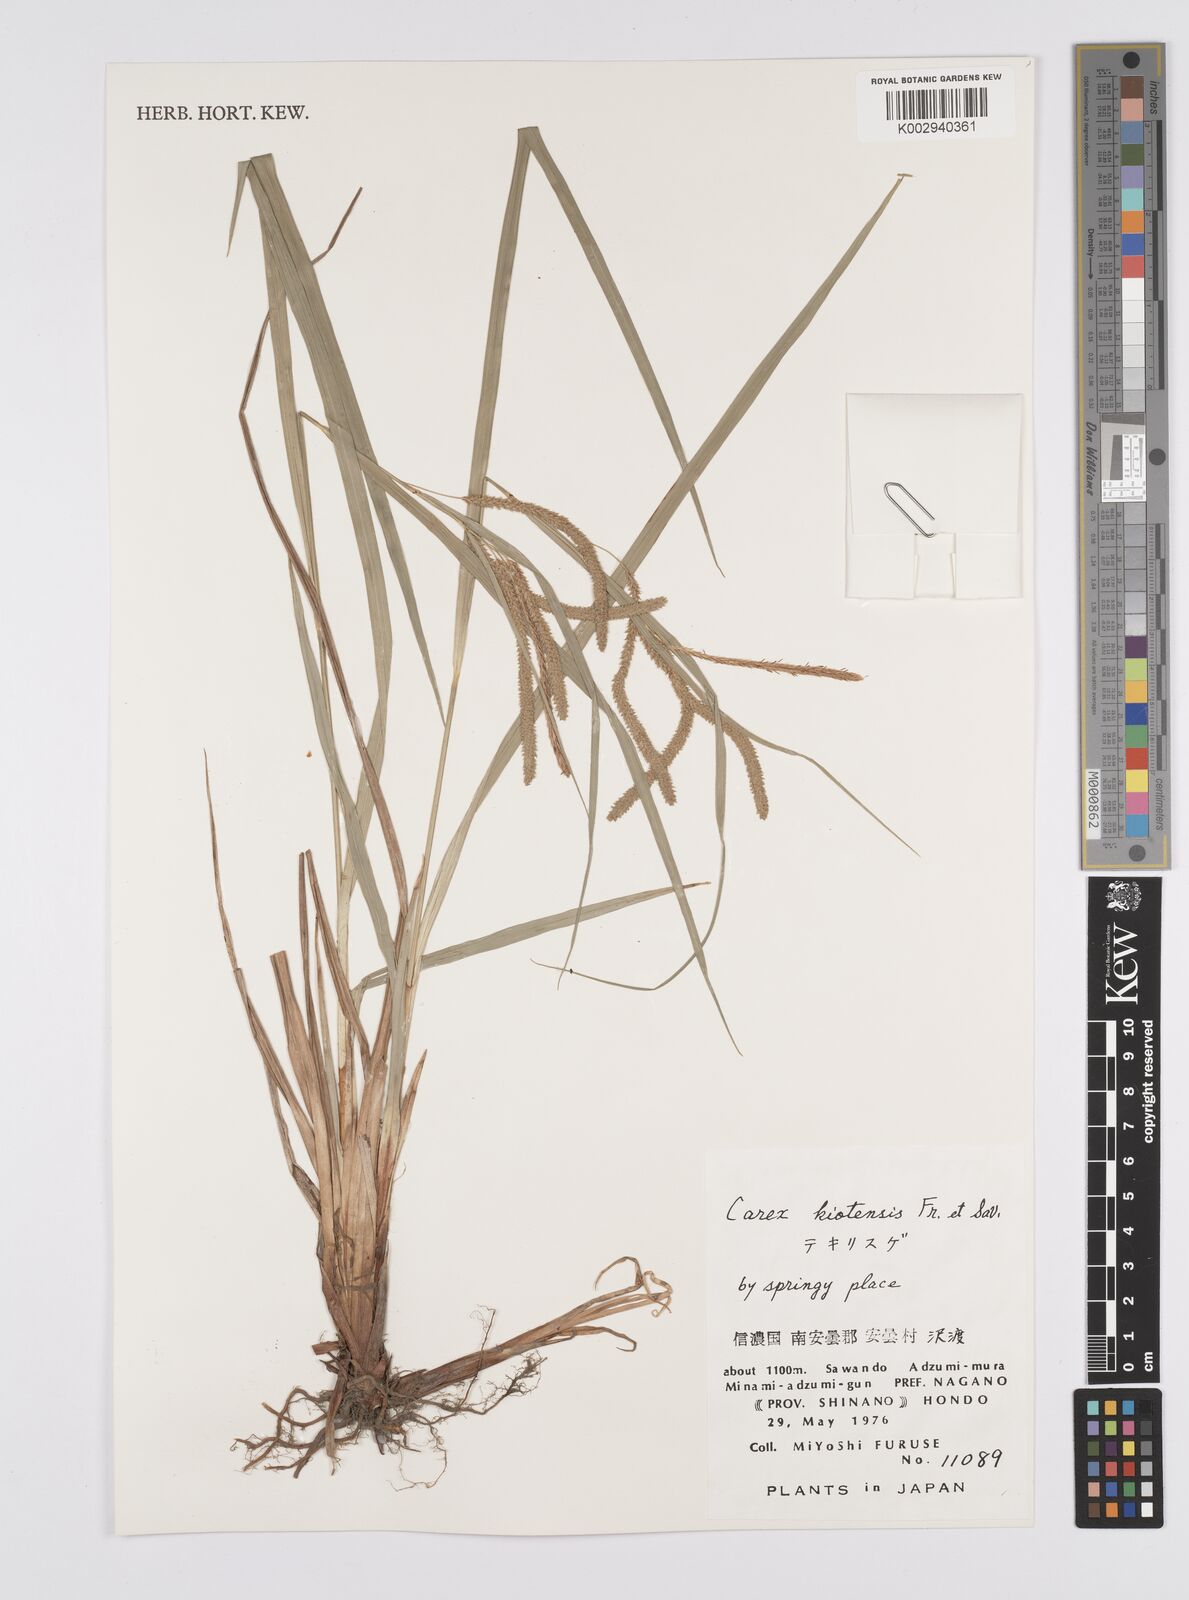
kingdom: Plantae
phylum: Tracheophyta
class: Liliopsida
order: Poales
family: Cyperaceae
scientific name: Cyperaceae
